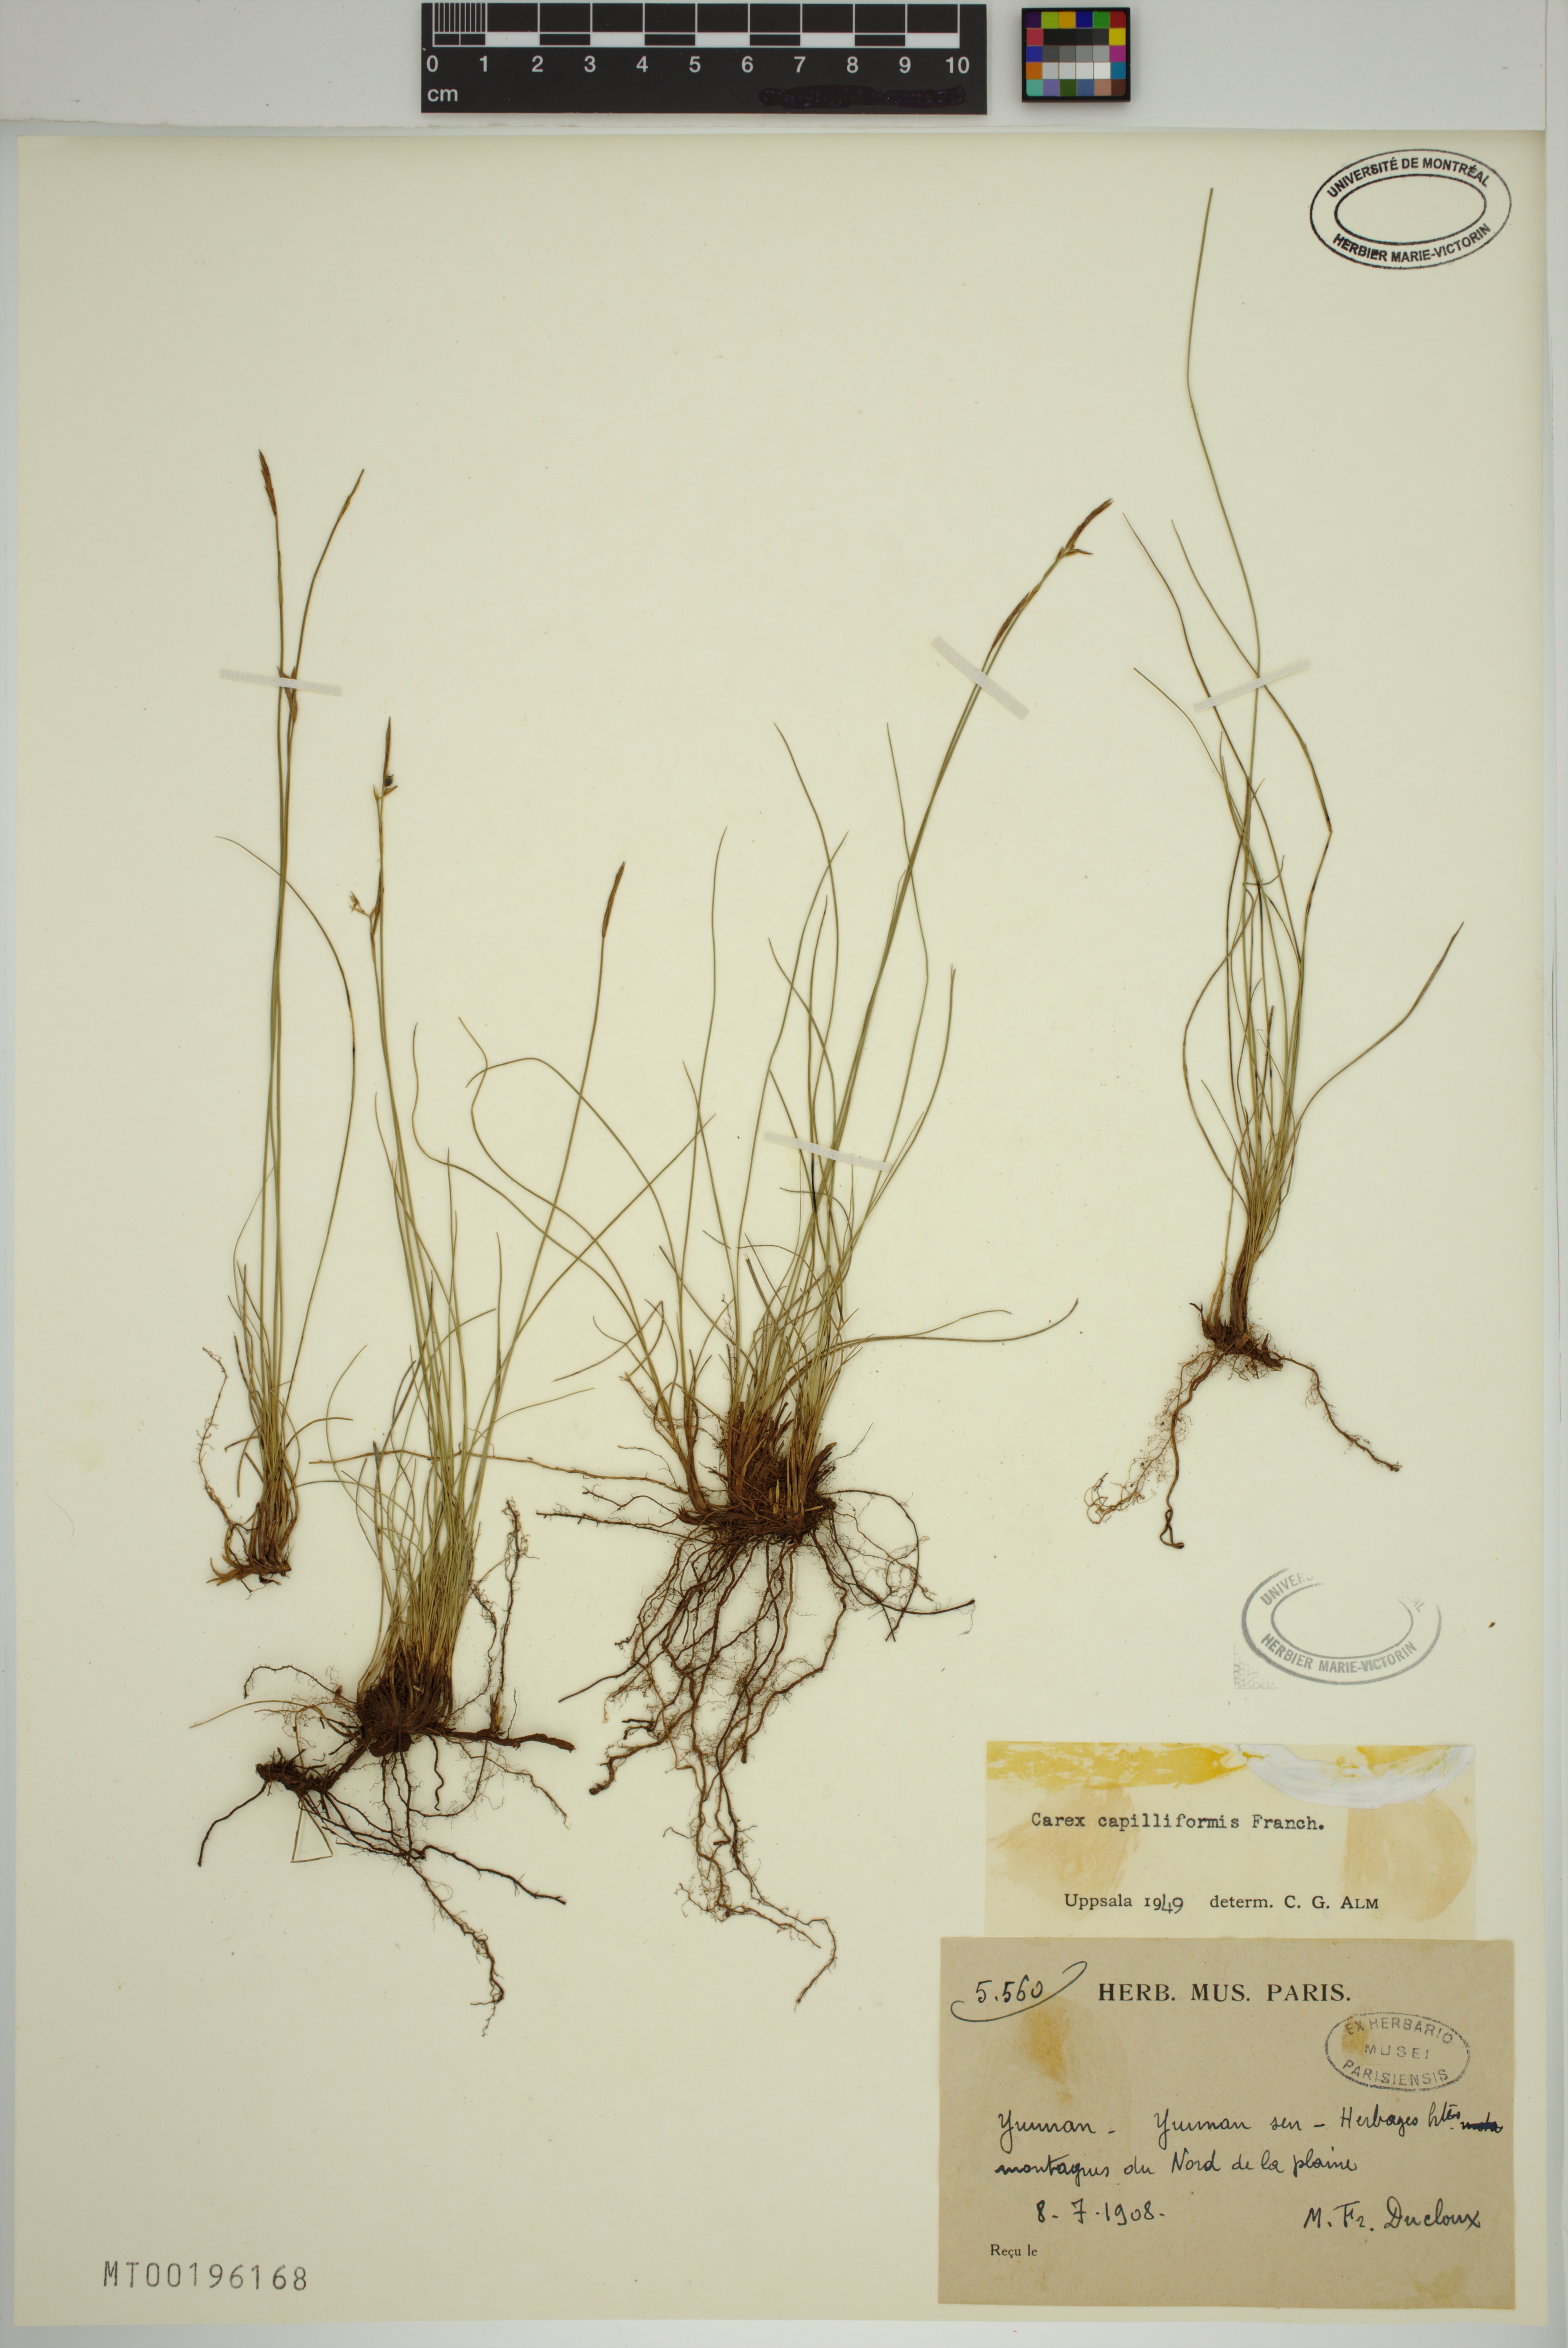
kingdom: Plantae
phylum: Tracheophyta
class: Liliopsida
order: Poales
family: Cyperaceae
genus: Carex
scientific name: Carex capilliformis
